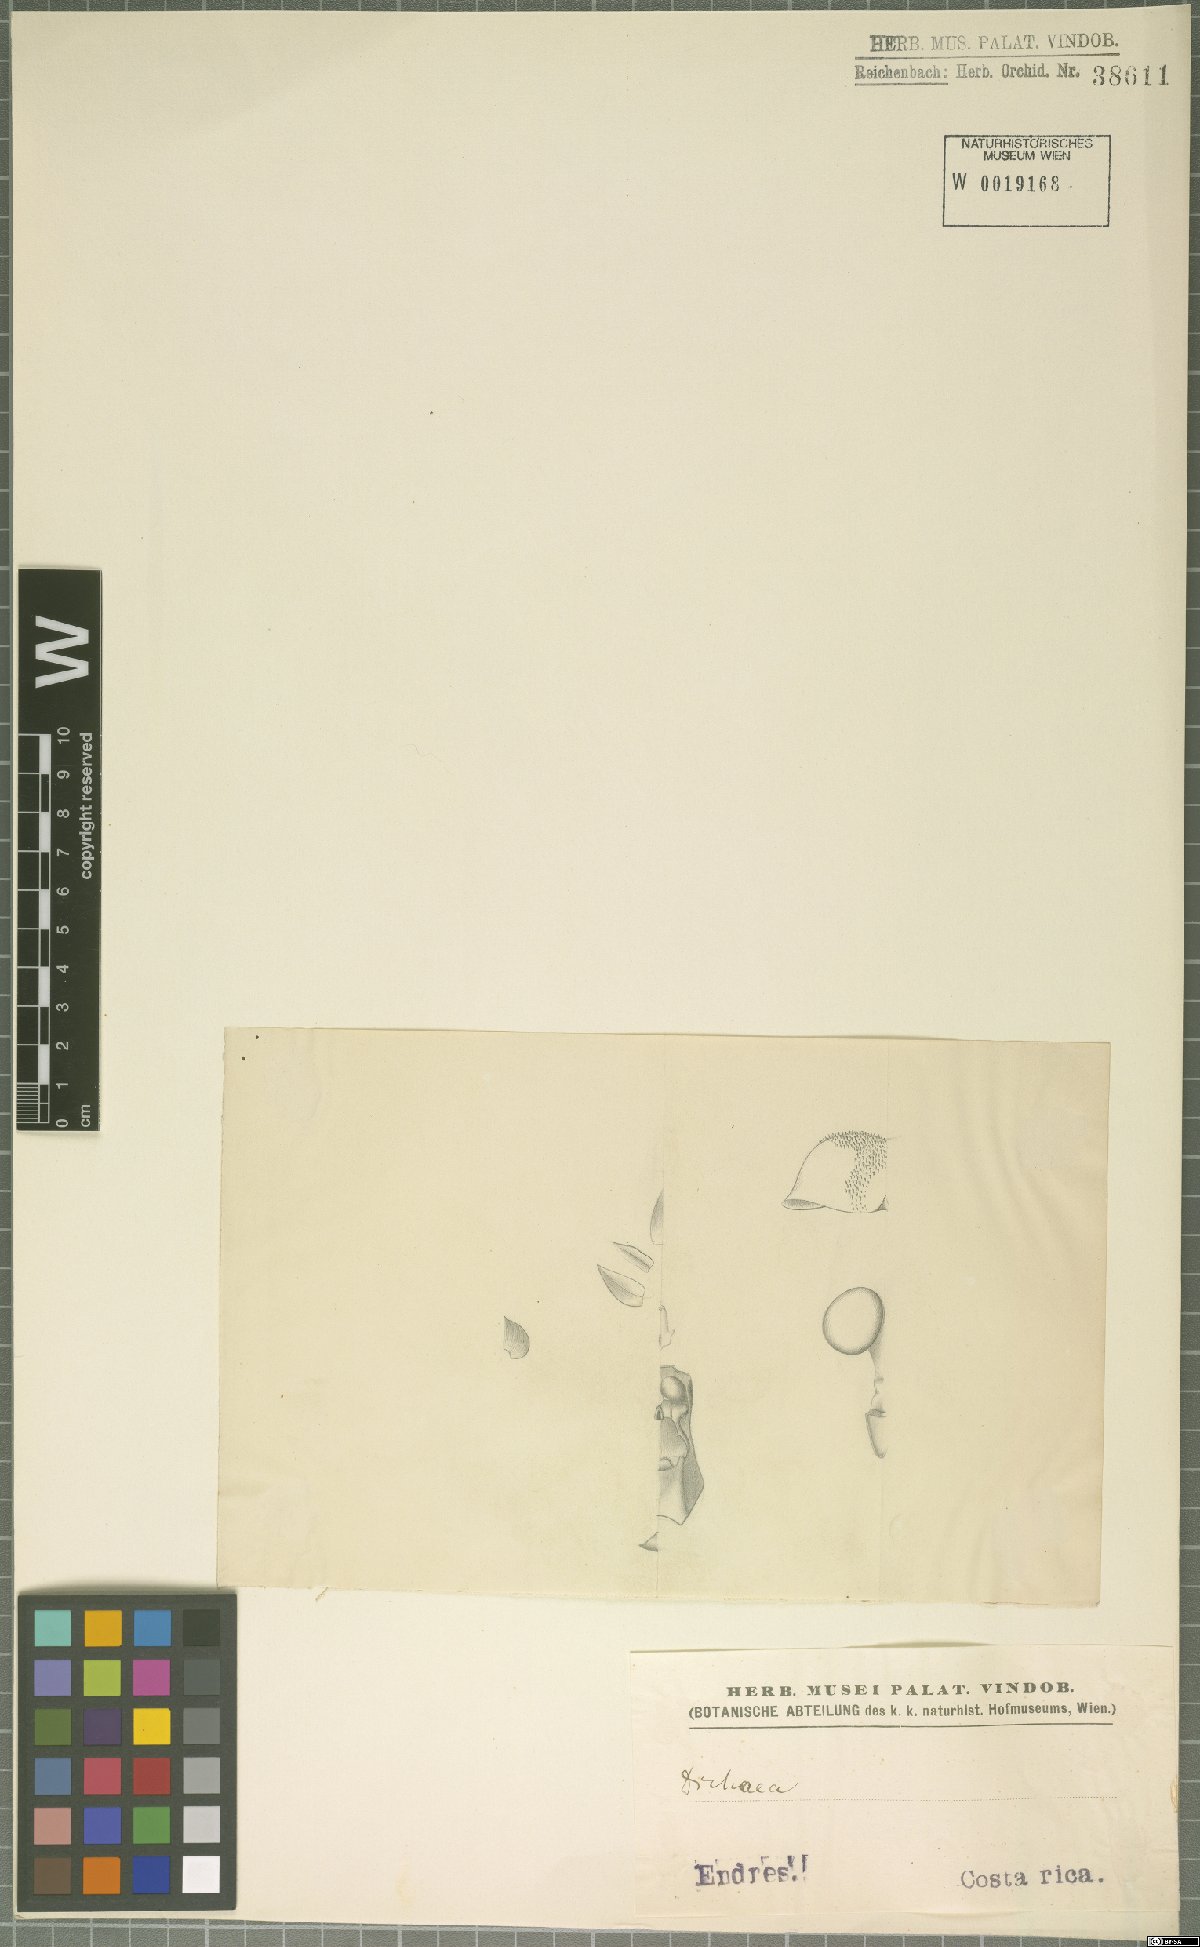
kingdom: Plantae
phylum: Tracheophyta
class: Liliopsida
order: Asparagales
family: Orchidaceae
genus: Dichaea
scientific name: Dichaea
